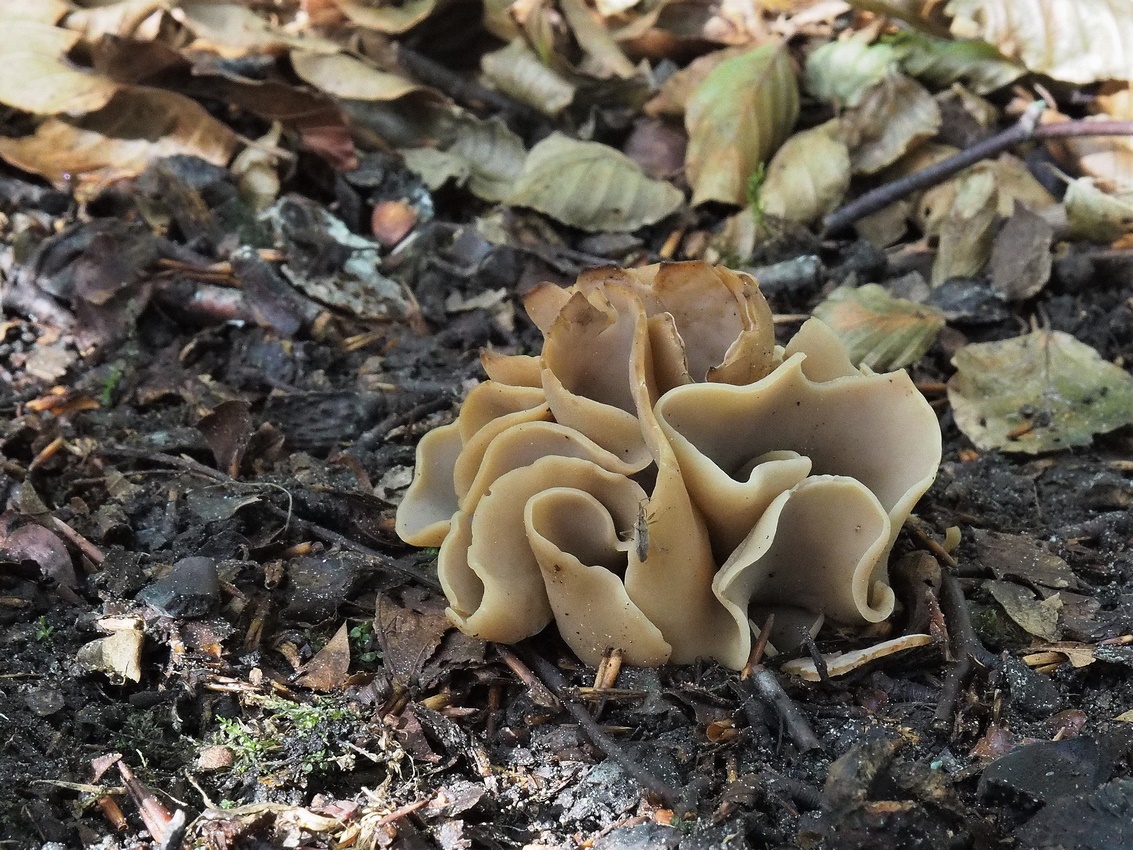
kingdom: Fungi
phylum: Ascomycota
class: Pezizomycetes
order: Pezizales
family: Otideaceae
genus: Otidea
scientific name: Otidea alutacea
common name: læder-ørebæger
